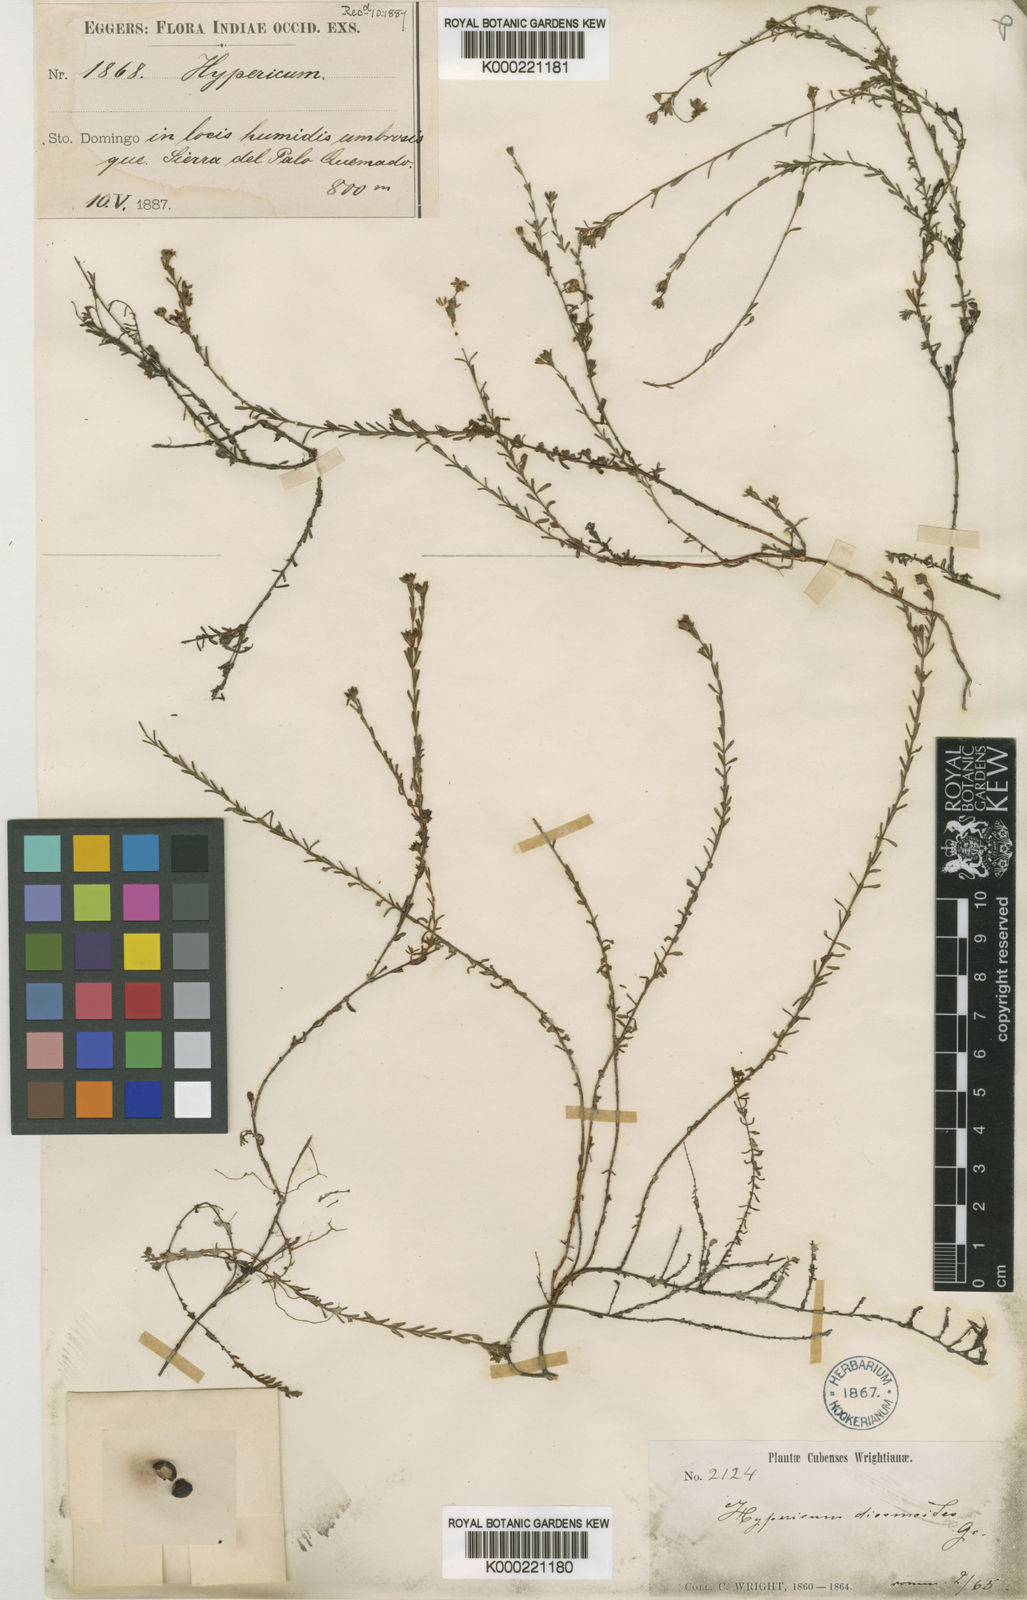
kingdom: Plantae
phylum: Tracheophyta
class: Magnoliopsida
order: Malpighiales
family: Hypericaceae
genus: Hypericum
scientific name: Hypericum diosmoides
